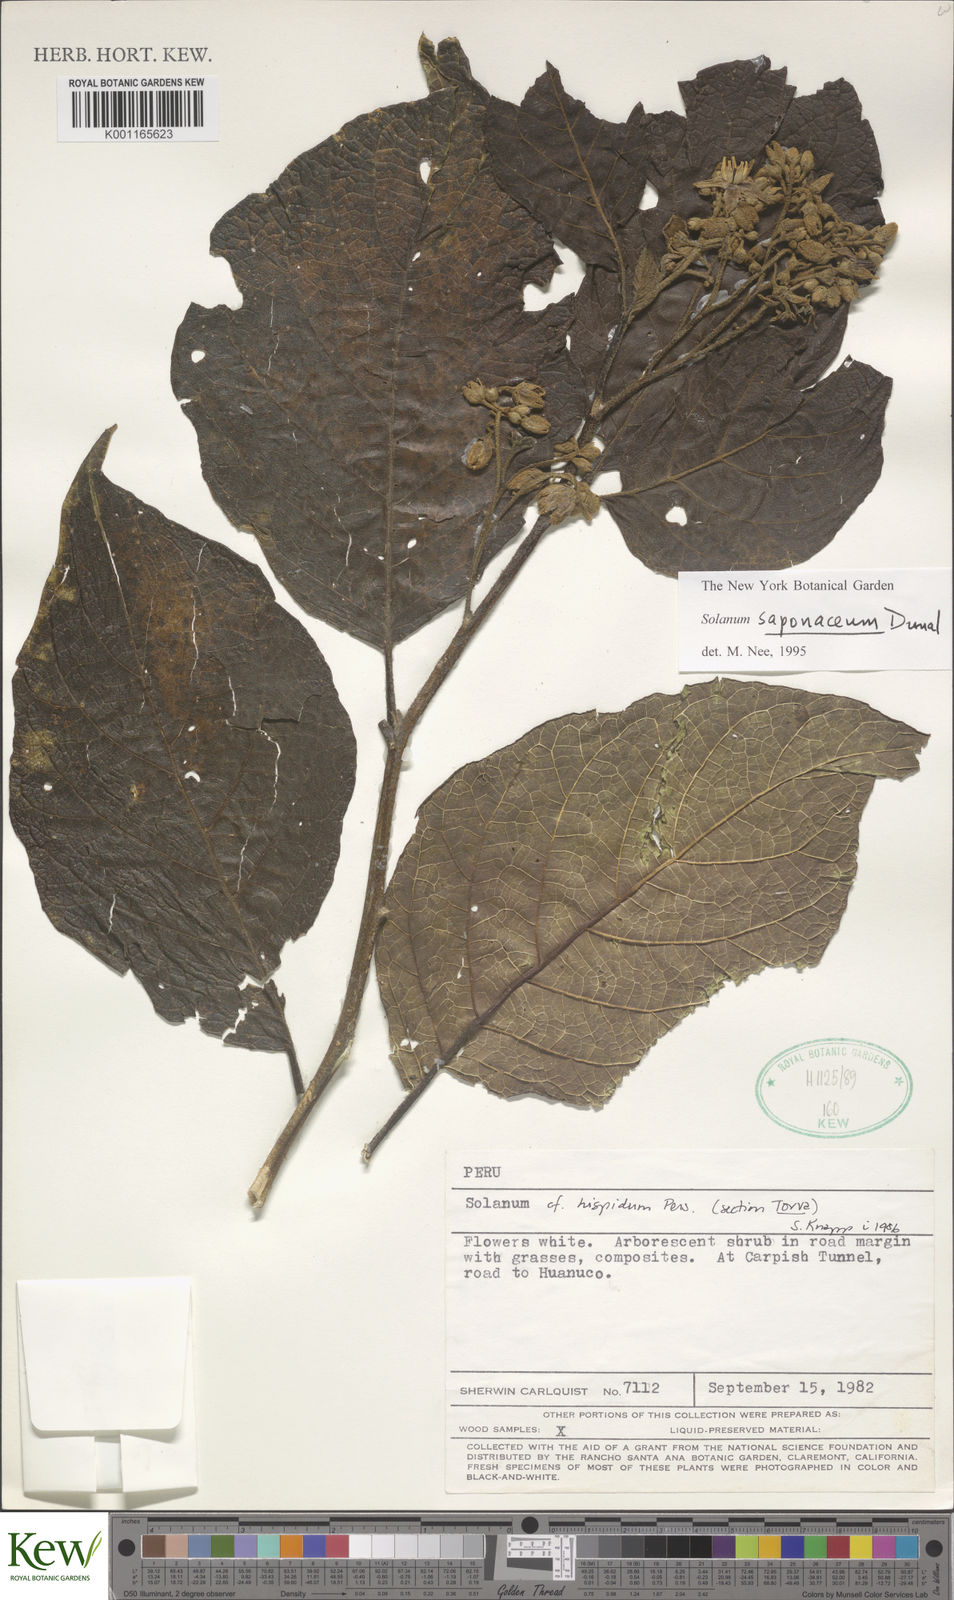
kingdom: Plantae
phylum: Tracheophyta
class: Magnoliopsida
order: Solanales
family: Solanaceae
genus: Solanum
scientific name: Solanum saponaceum
